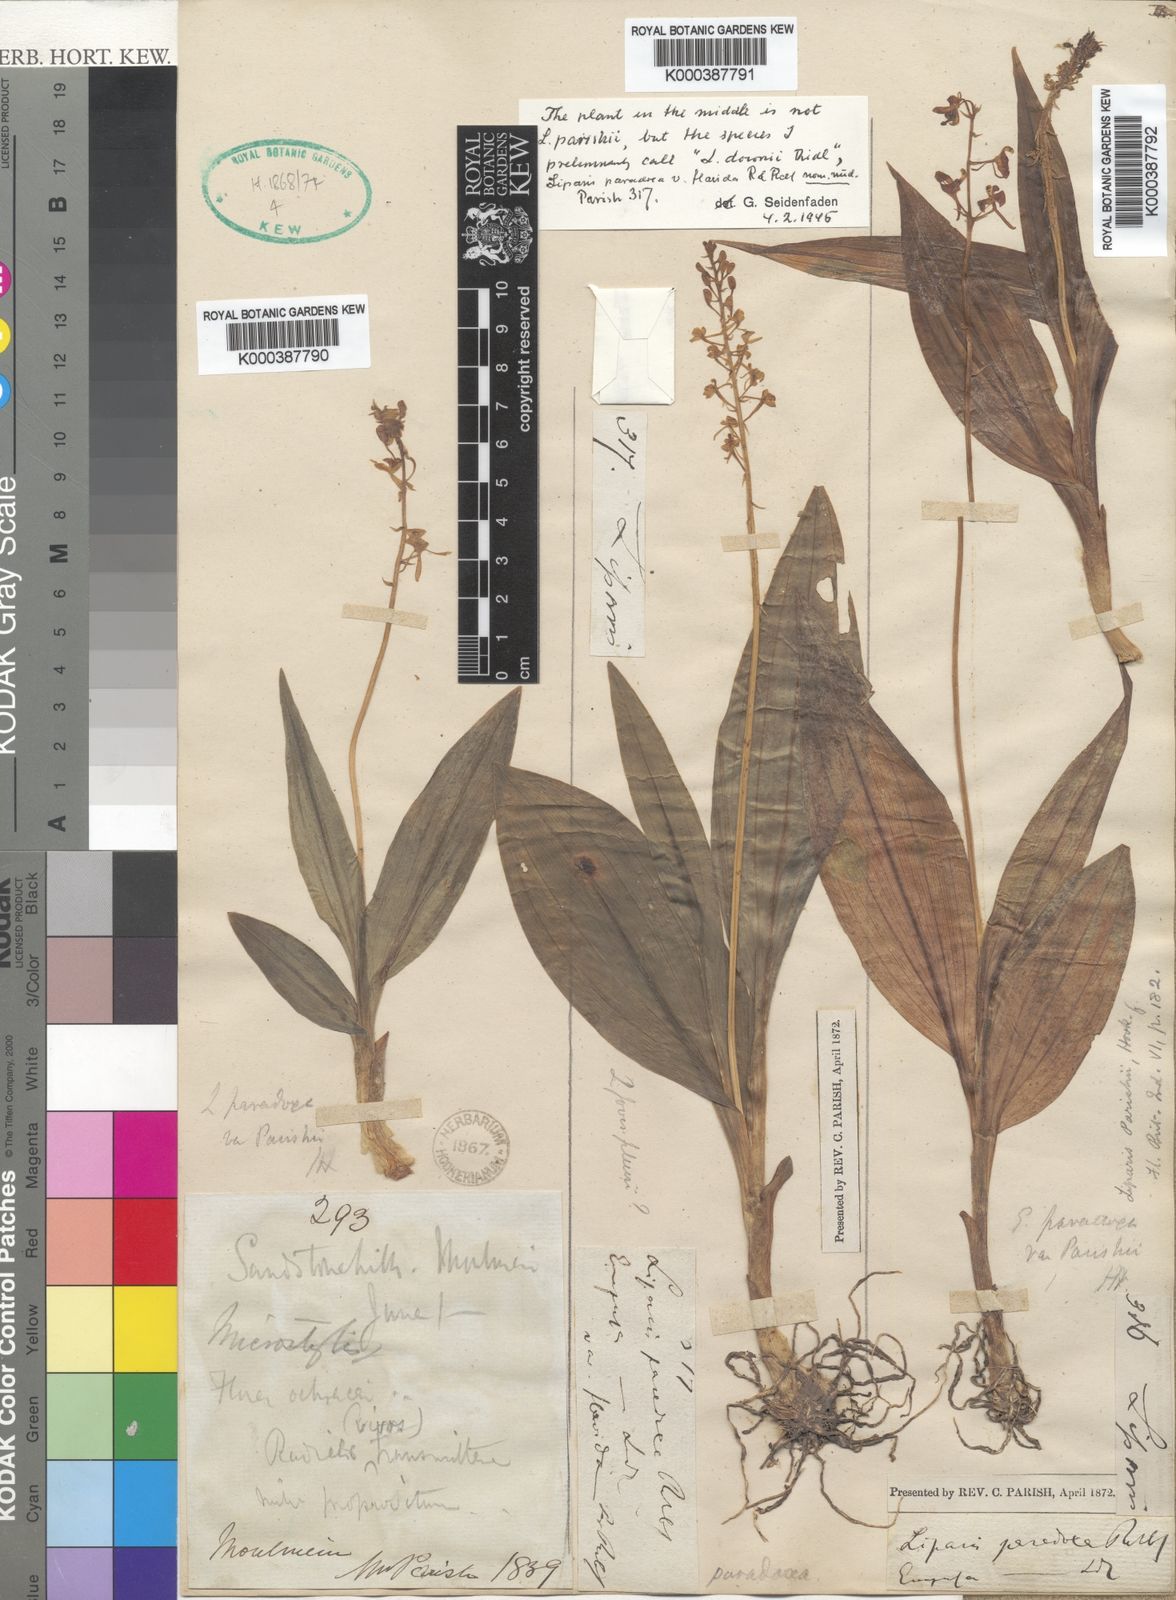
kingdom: Plantae
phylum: Tracheophyta
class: Liliopsida
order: Asparagales
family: Orchidaceae
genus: Liparis
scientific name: Liparis odorata
